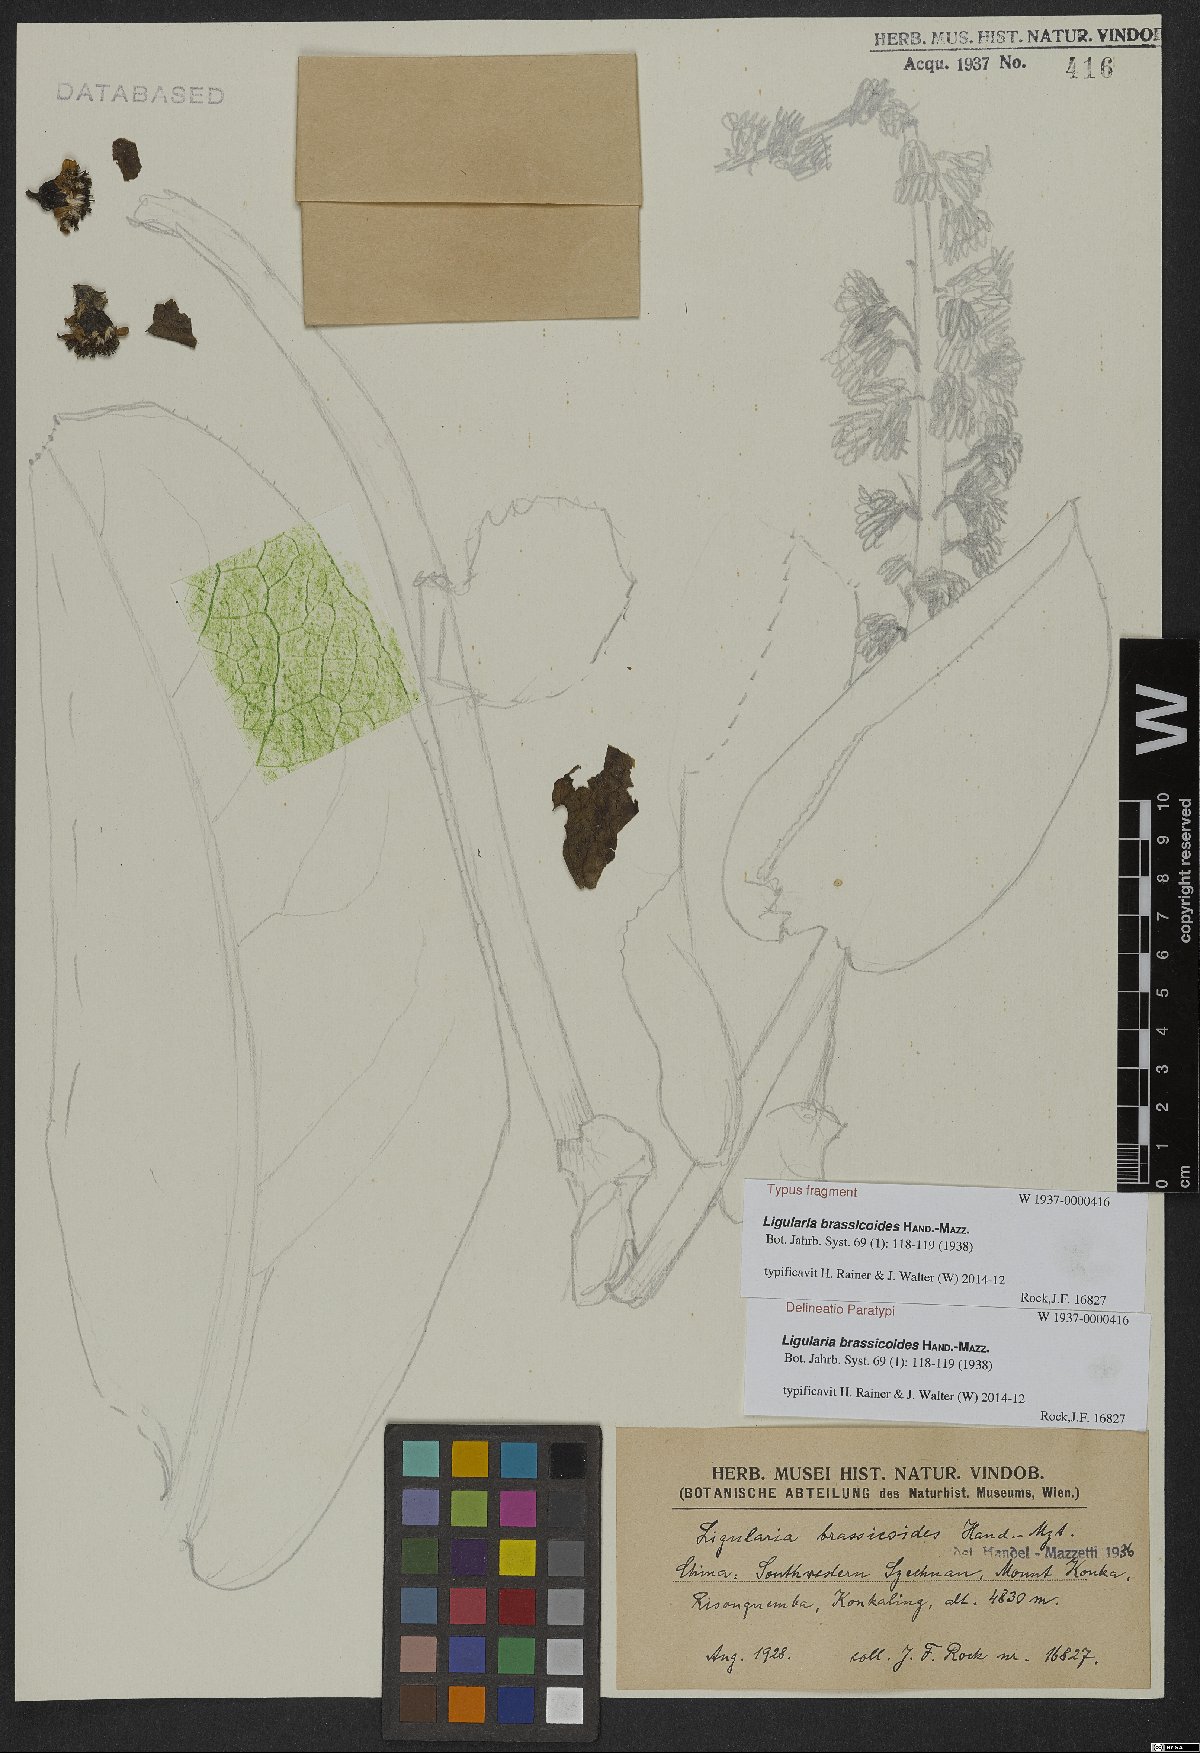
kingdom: Plantae
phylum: Tracheophyta
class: Magnoliopsida
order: Asterales
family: Asteraceae
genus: Ligularia
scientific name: Ligularia brassicoides
